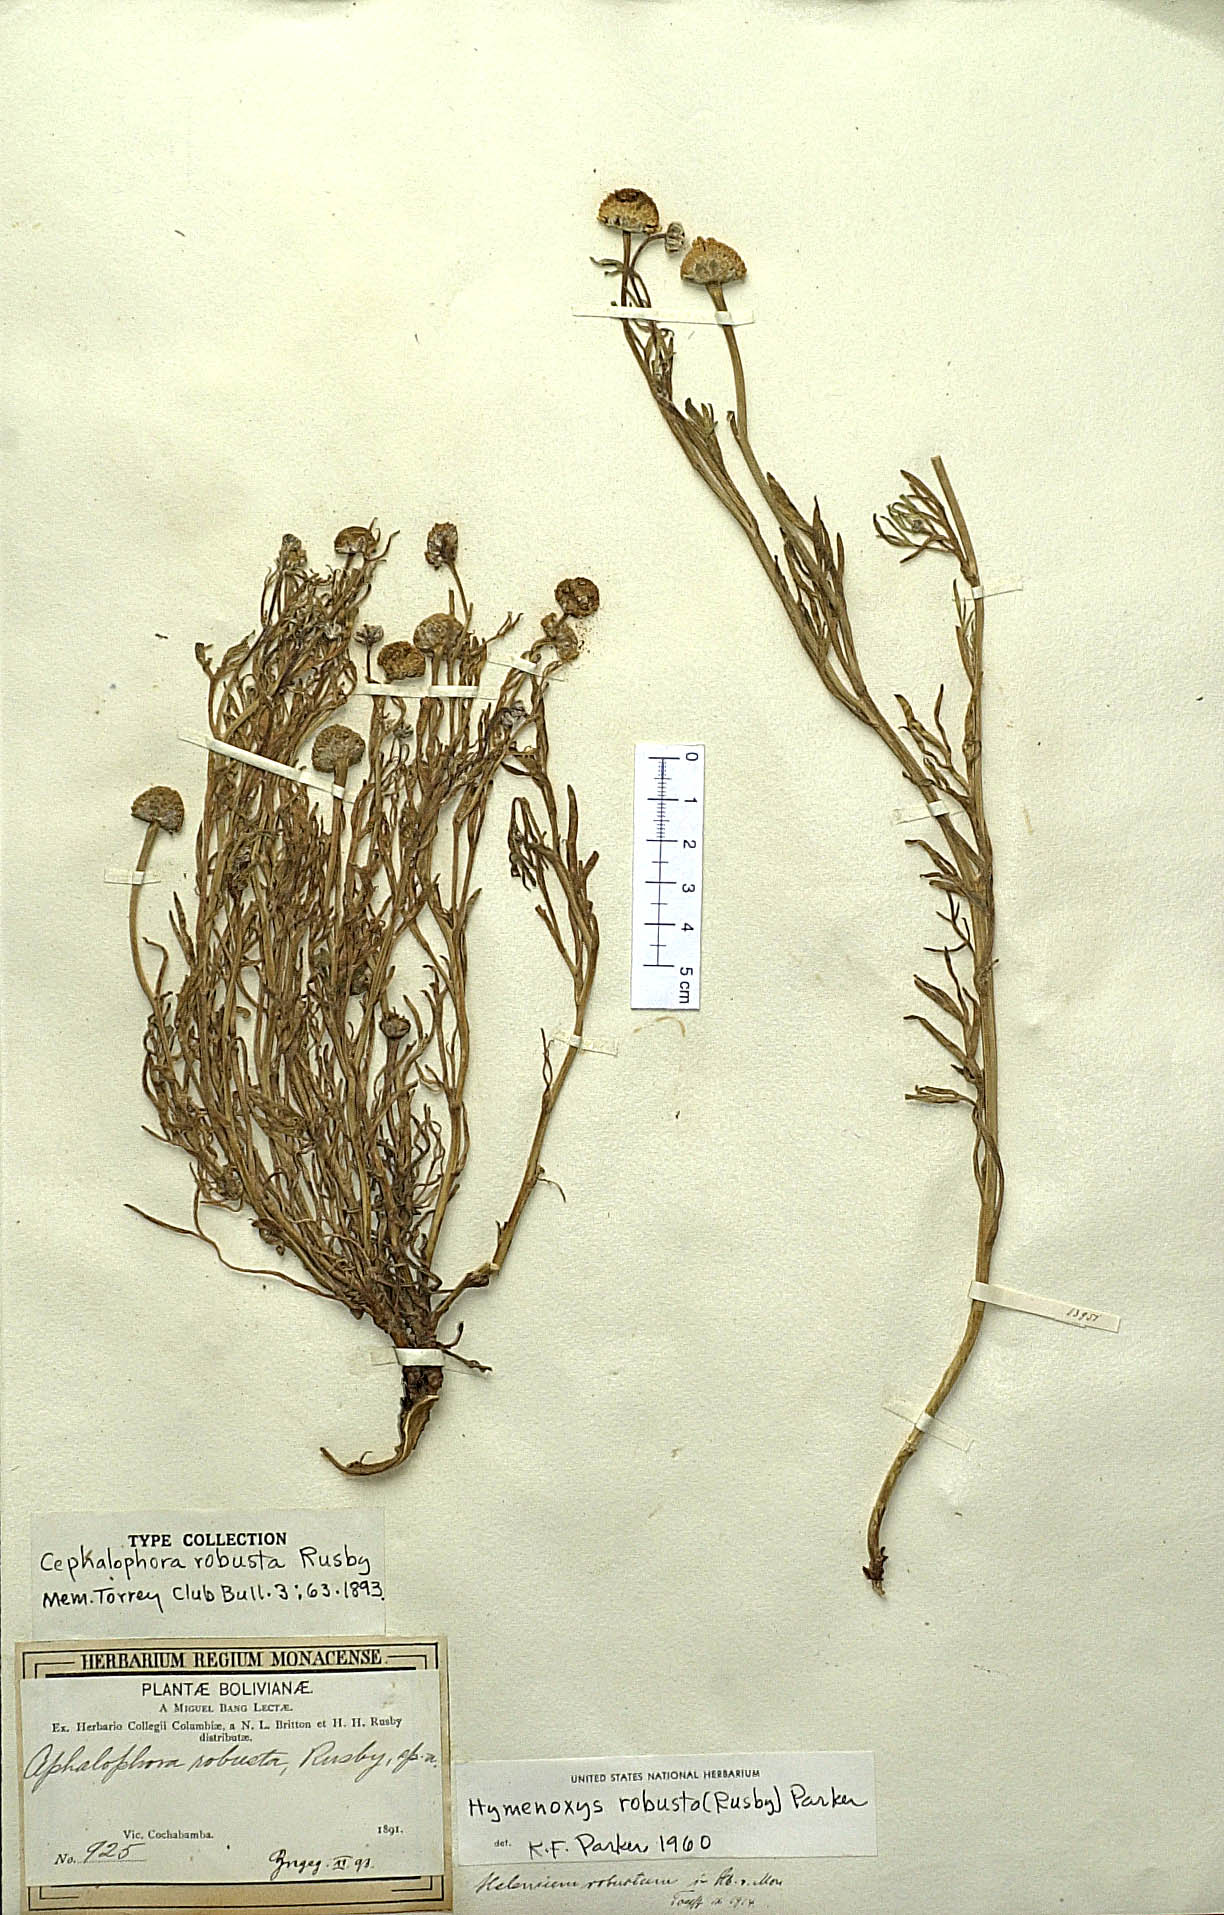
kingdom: Plantae
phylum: Tracheophyta
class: Magnoliopsida
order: Asterales
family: Asteraceae
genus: Hymenoxys
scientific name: Hymenoxys robusta
